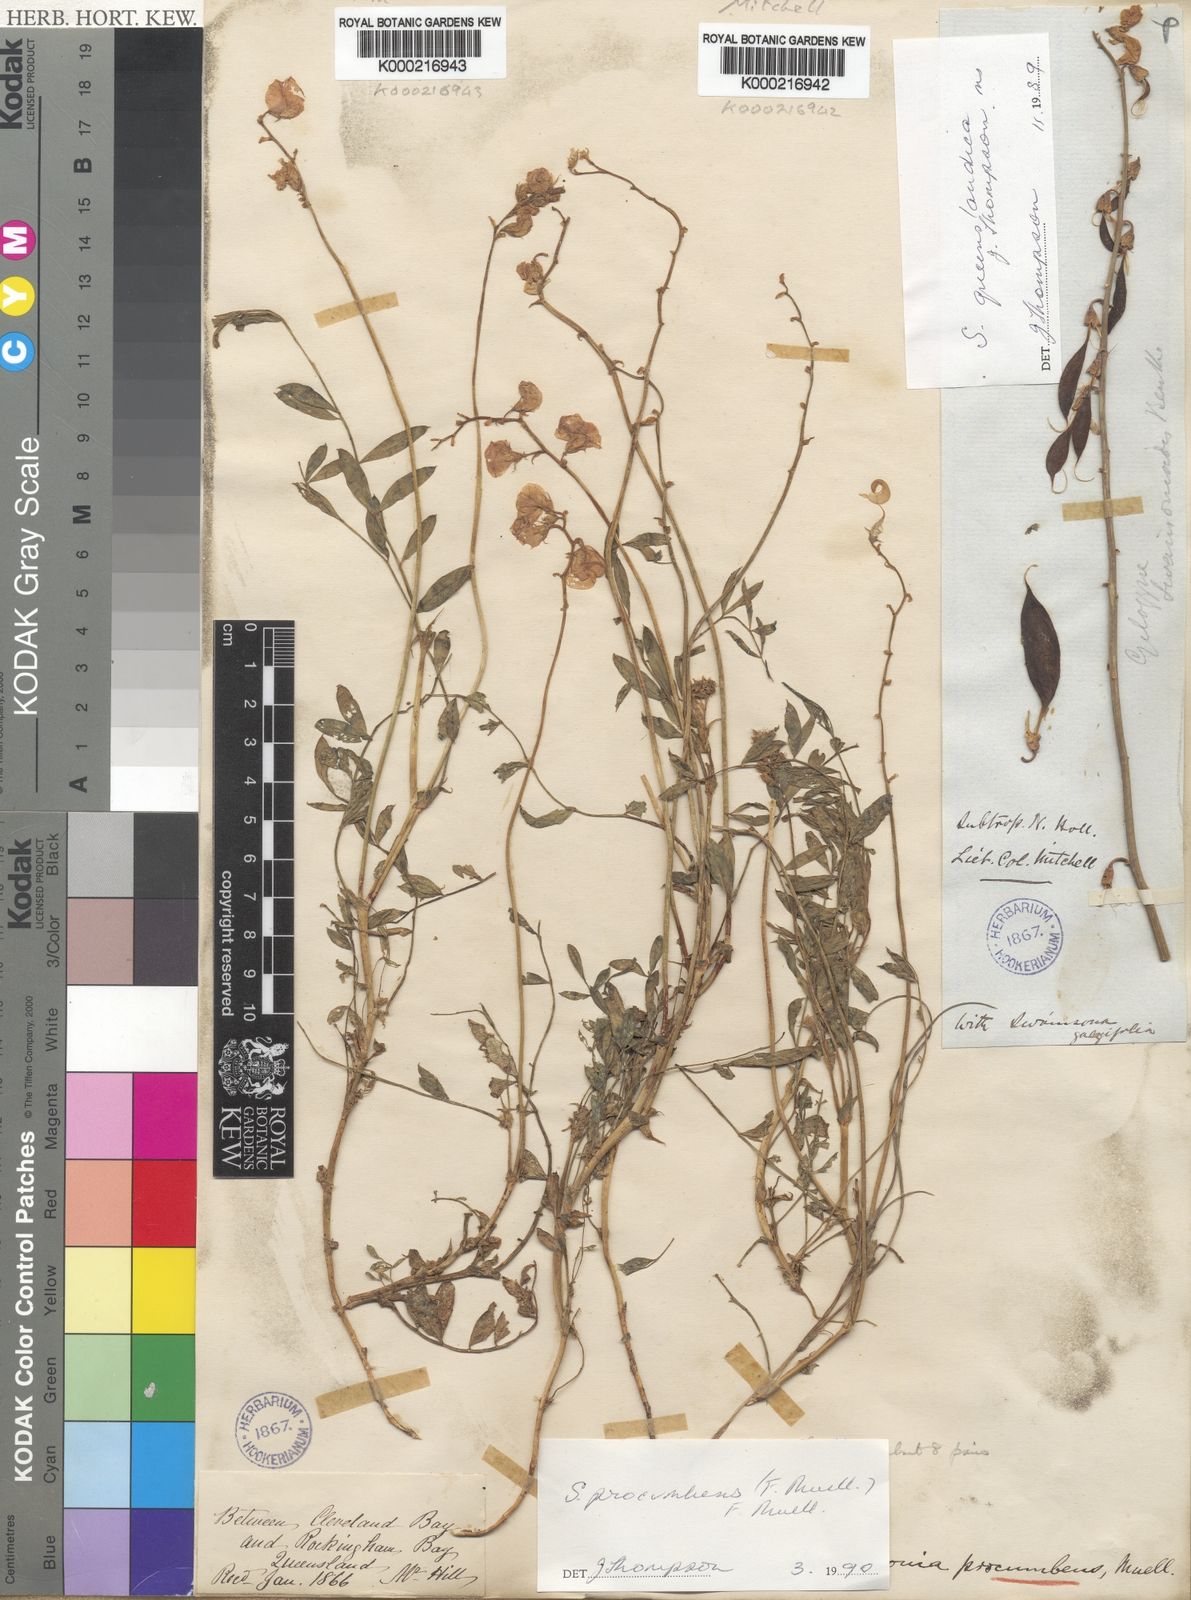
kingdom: Plantae
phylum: Tracheophyta
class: Magnoliopsida
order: Fabales
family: Fabaceae
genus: Swainsona
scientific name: Swainsona procumbens
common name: Broughton-pea
